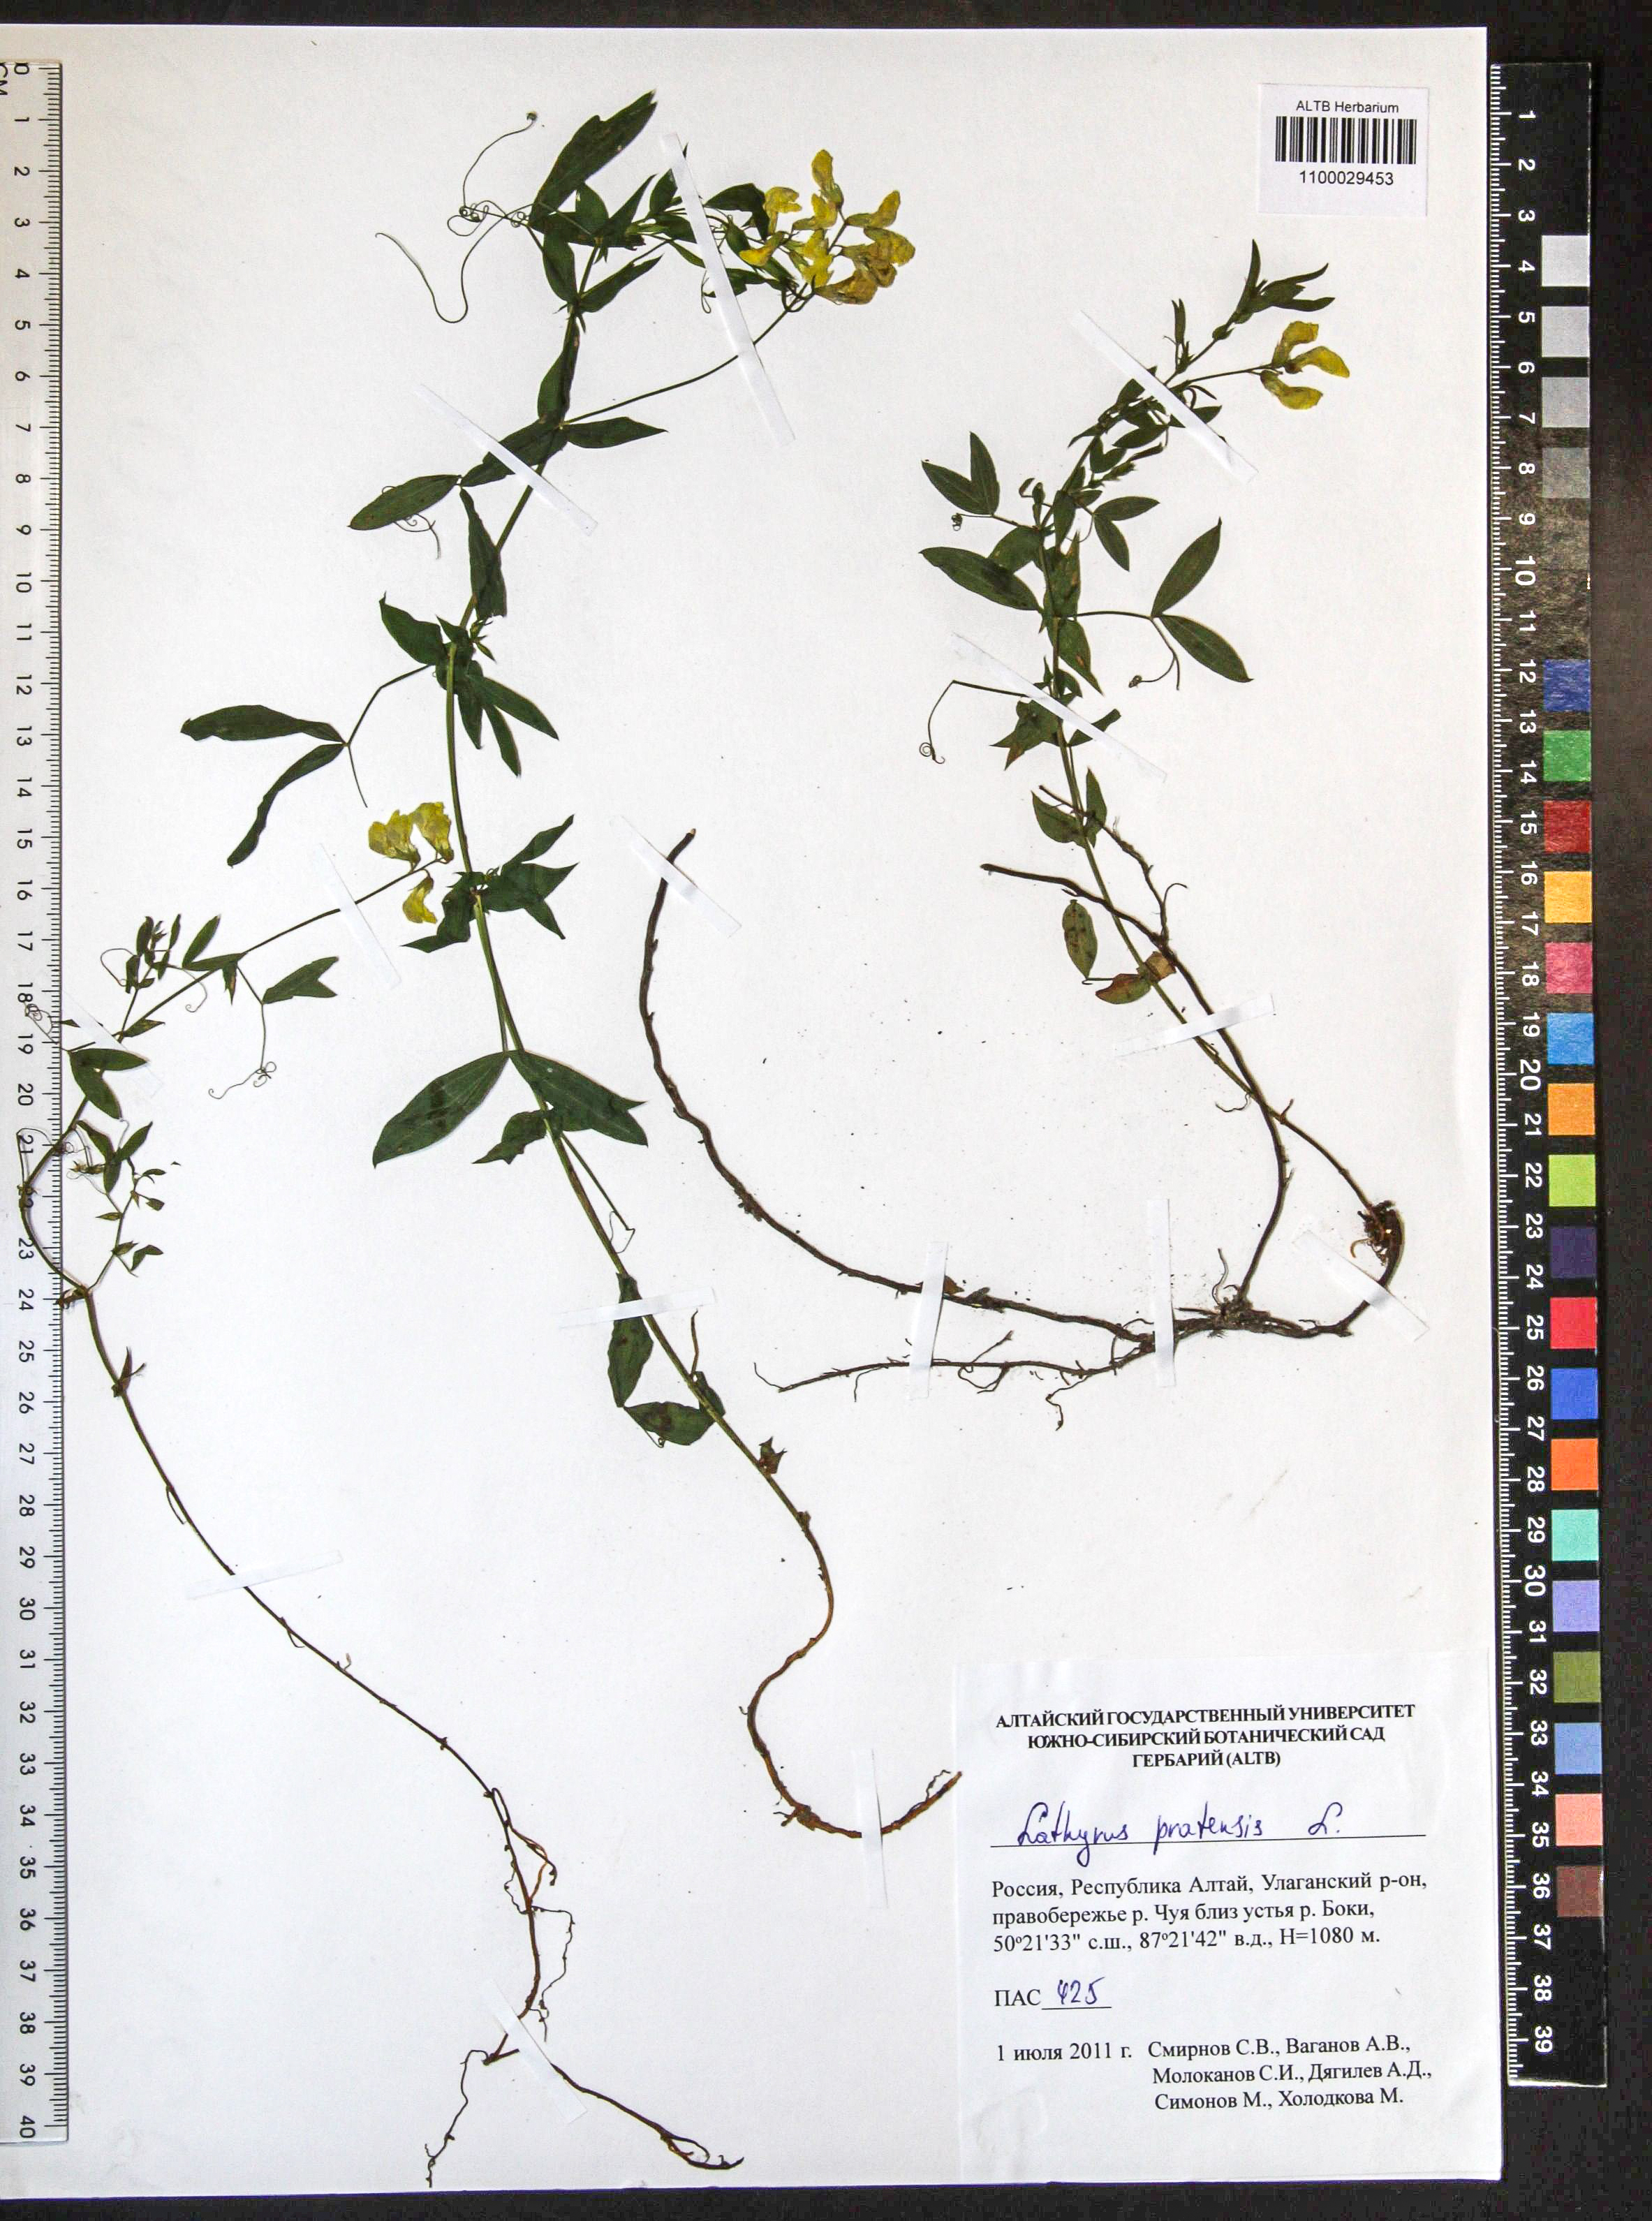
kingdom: Plantae
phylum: Tracheophyta
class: Magnoliopsida
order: Fabales
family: Fabaceae
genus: Lathyrus
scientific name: Lathyrus pratensis
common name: Meadow vetchling
